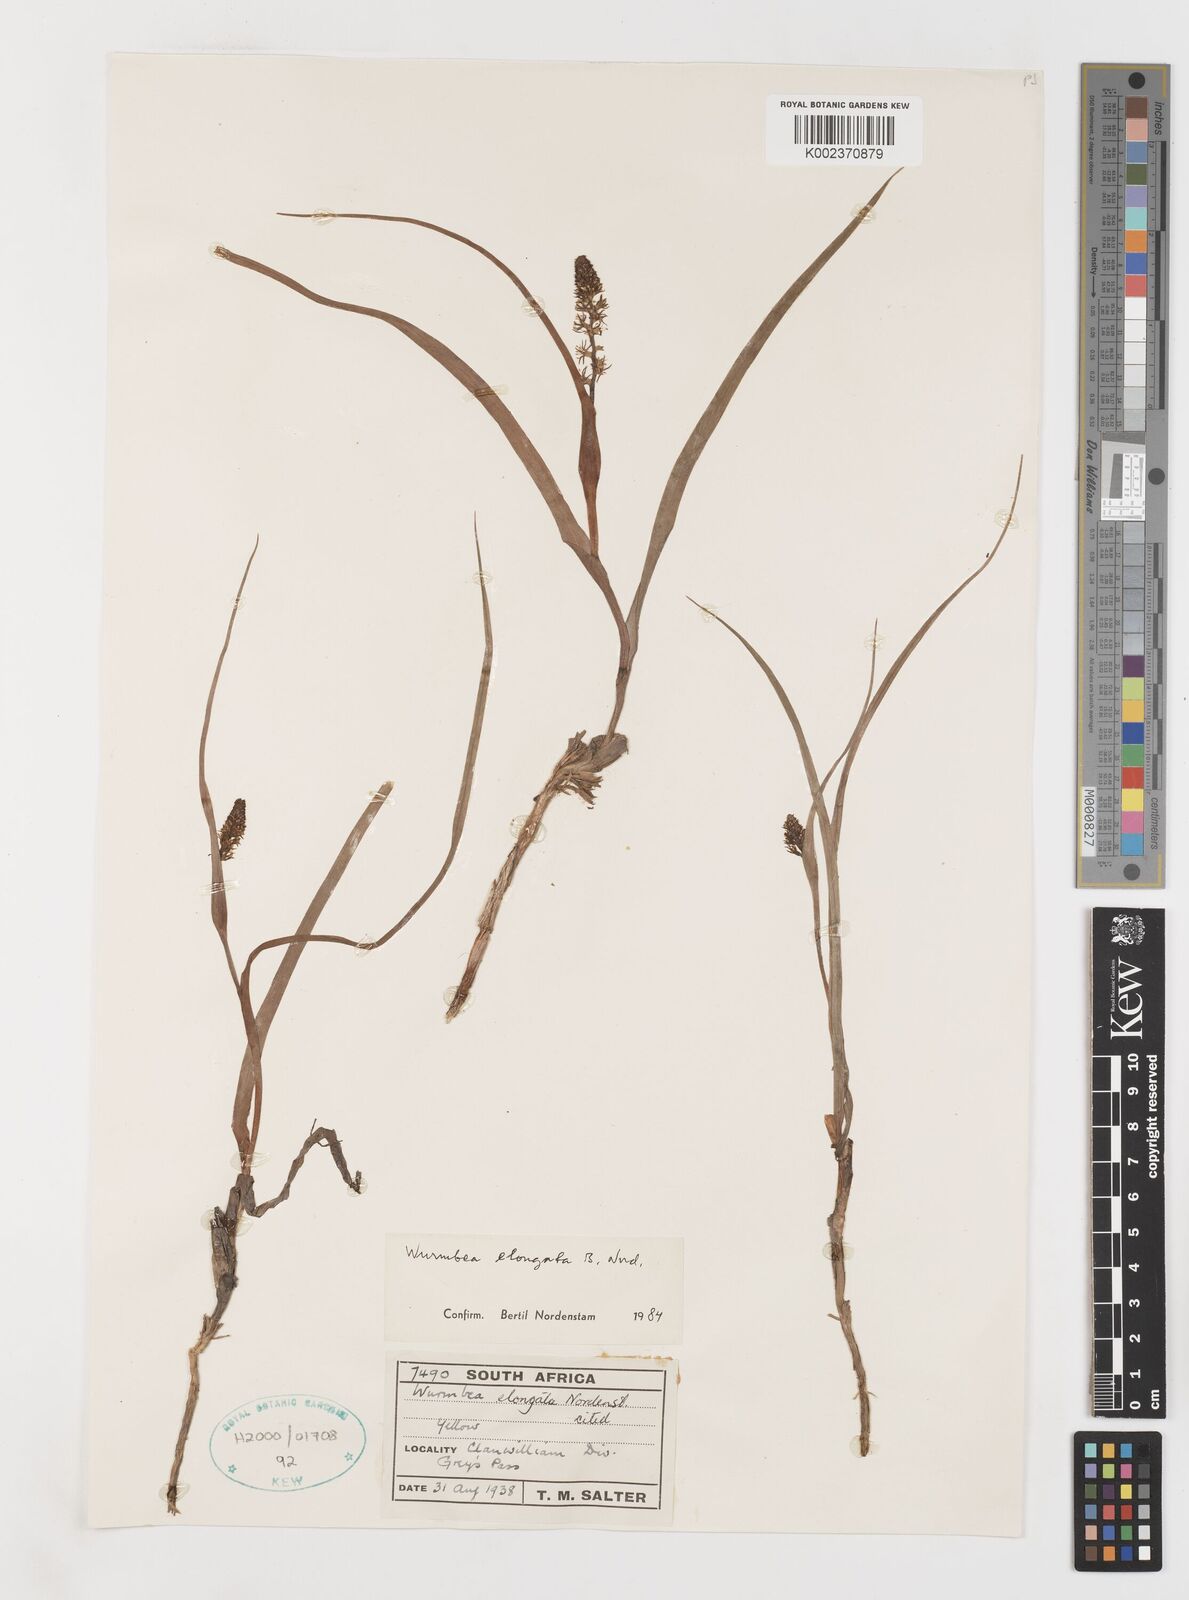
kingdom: Plantae
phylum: Tracheophyta
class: Liliopsida
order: Liliales
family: Colchicaceae
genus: Wurmbea
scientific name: Wurmbea elongata
